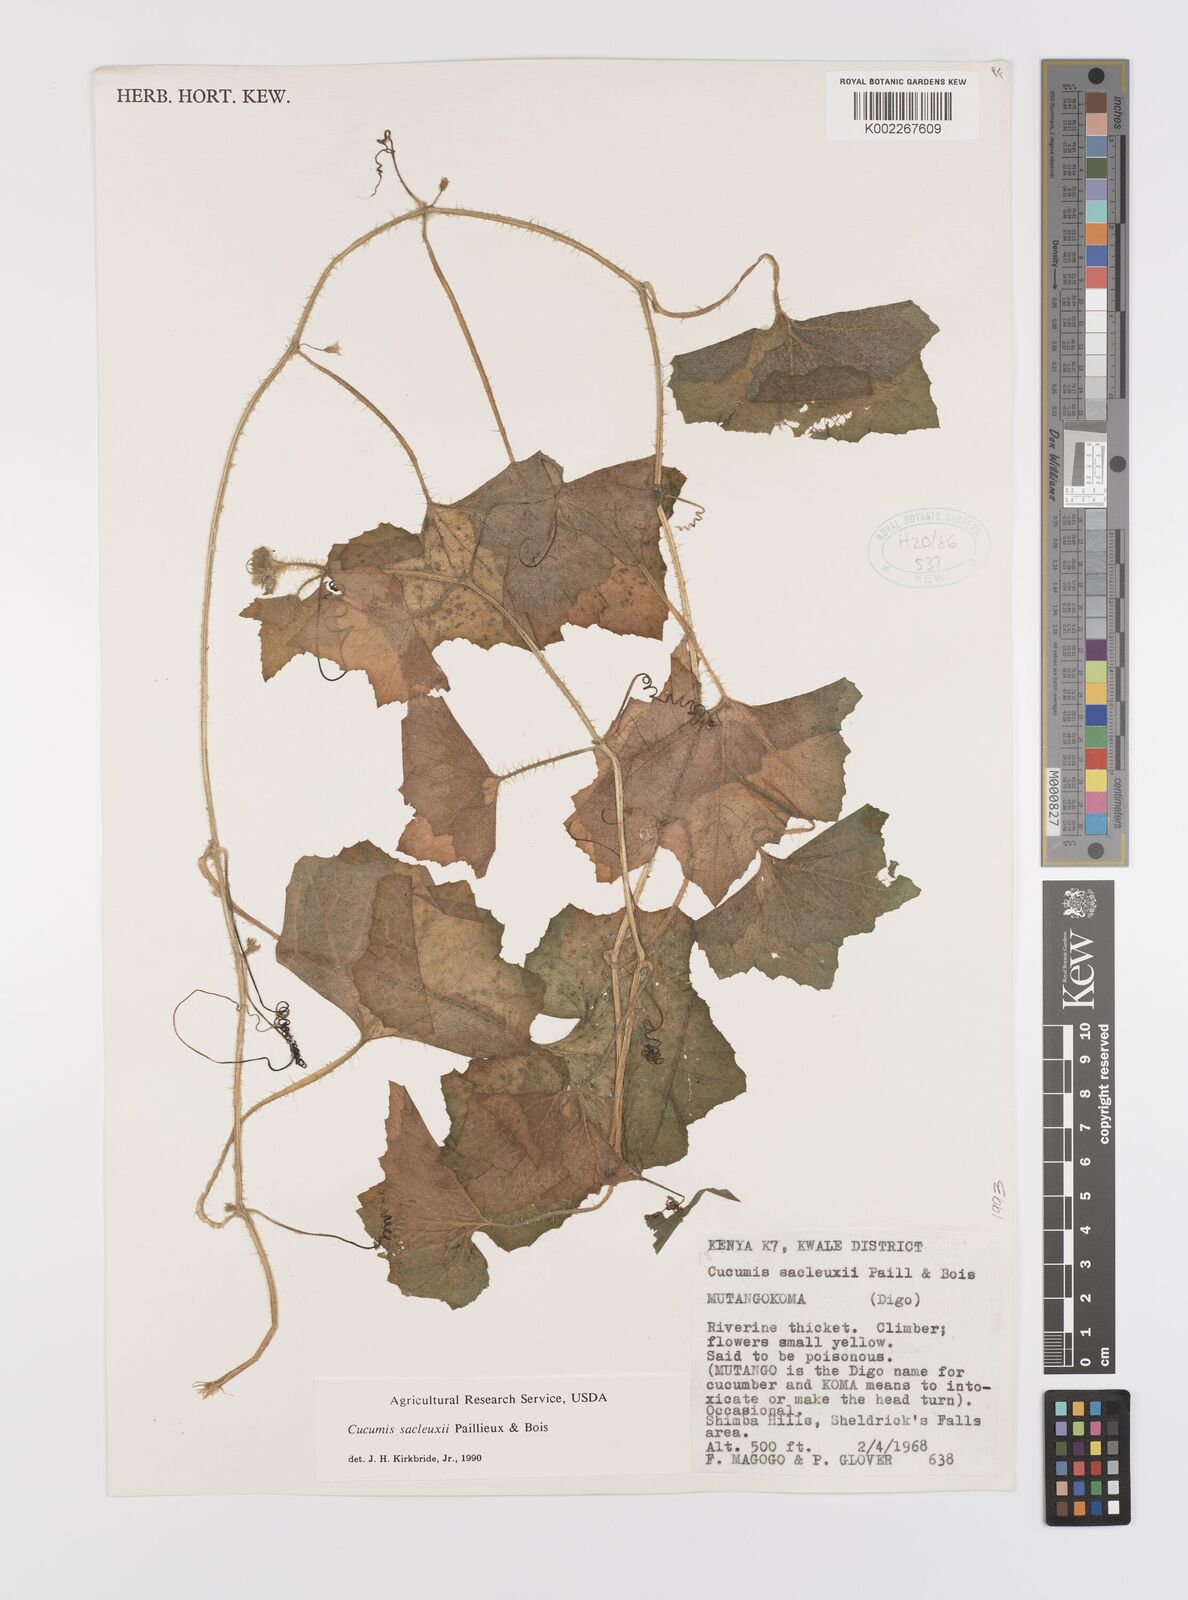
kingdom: Plantae
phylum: Tracheophyta
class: Magnoliopsida
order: Cucurbitales
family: Cucurbitaceae
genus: Cucumis
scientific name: Cucumis sacleuxii
